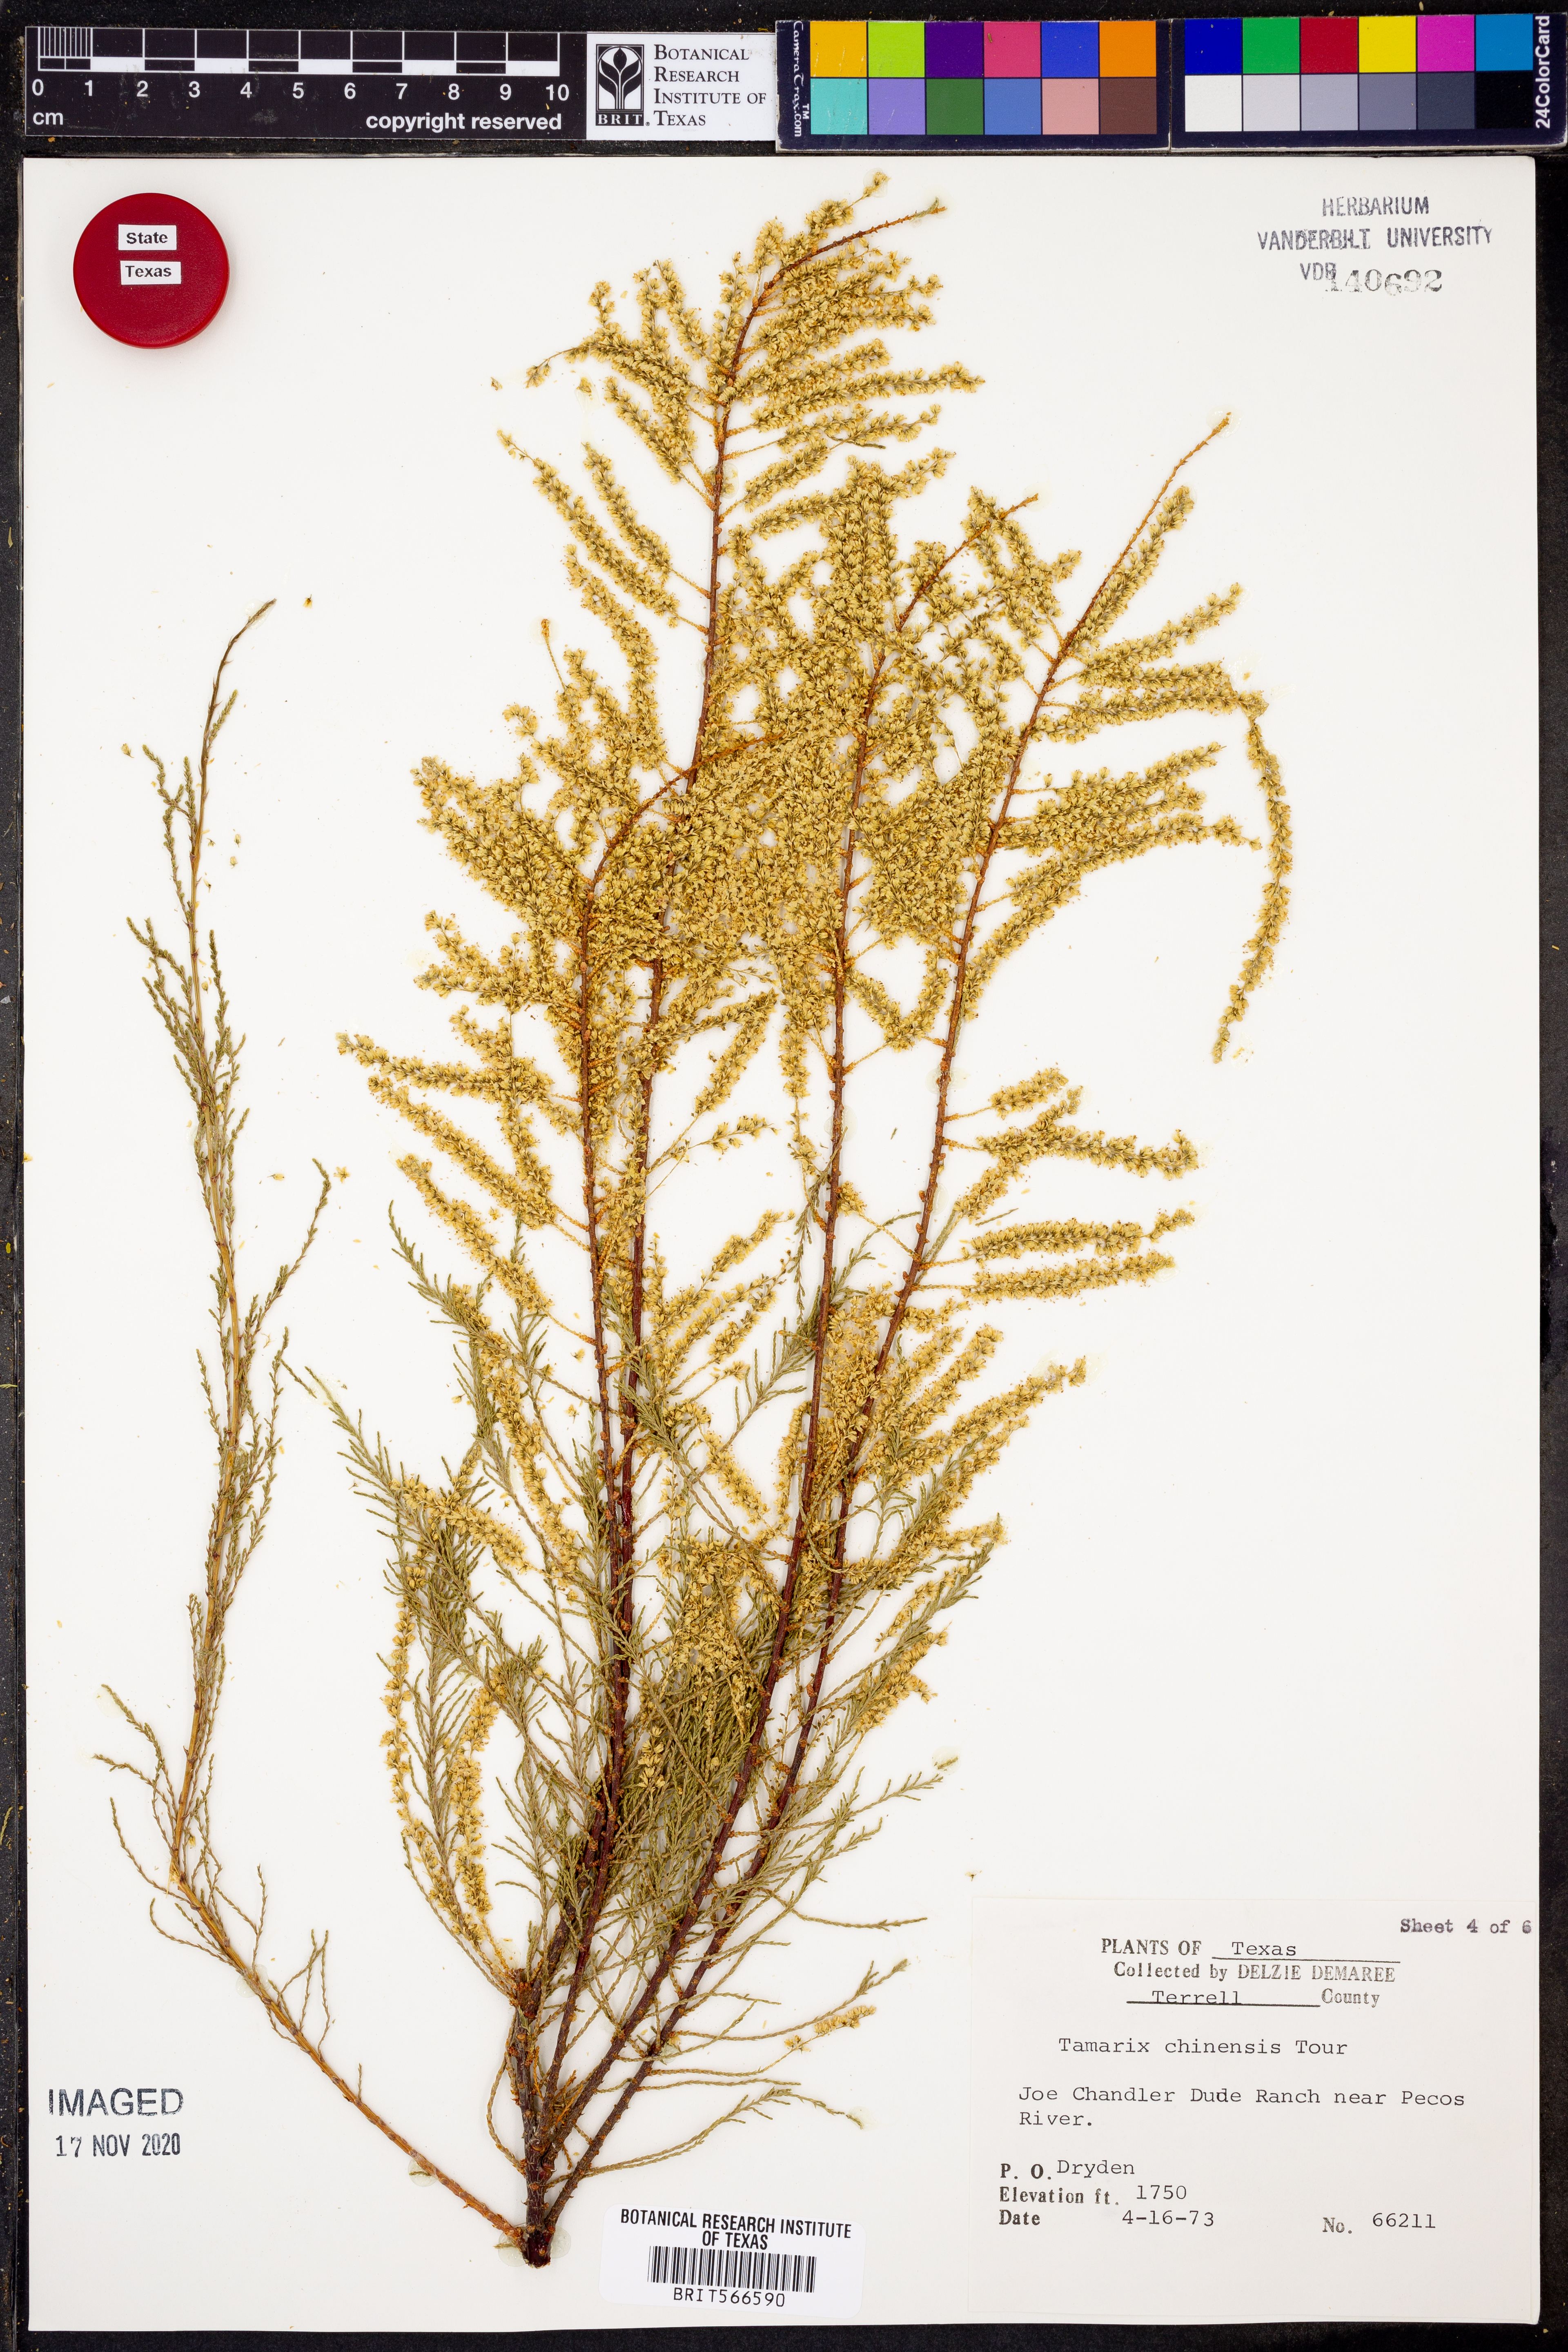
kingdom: Plantae
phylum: Tracheophyta
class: Magnoliopsida
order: Caryophyllales
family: Tamaricaceae
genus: Tamarix
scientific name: Tamarix chinensis
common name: Chinese tamarisk
